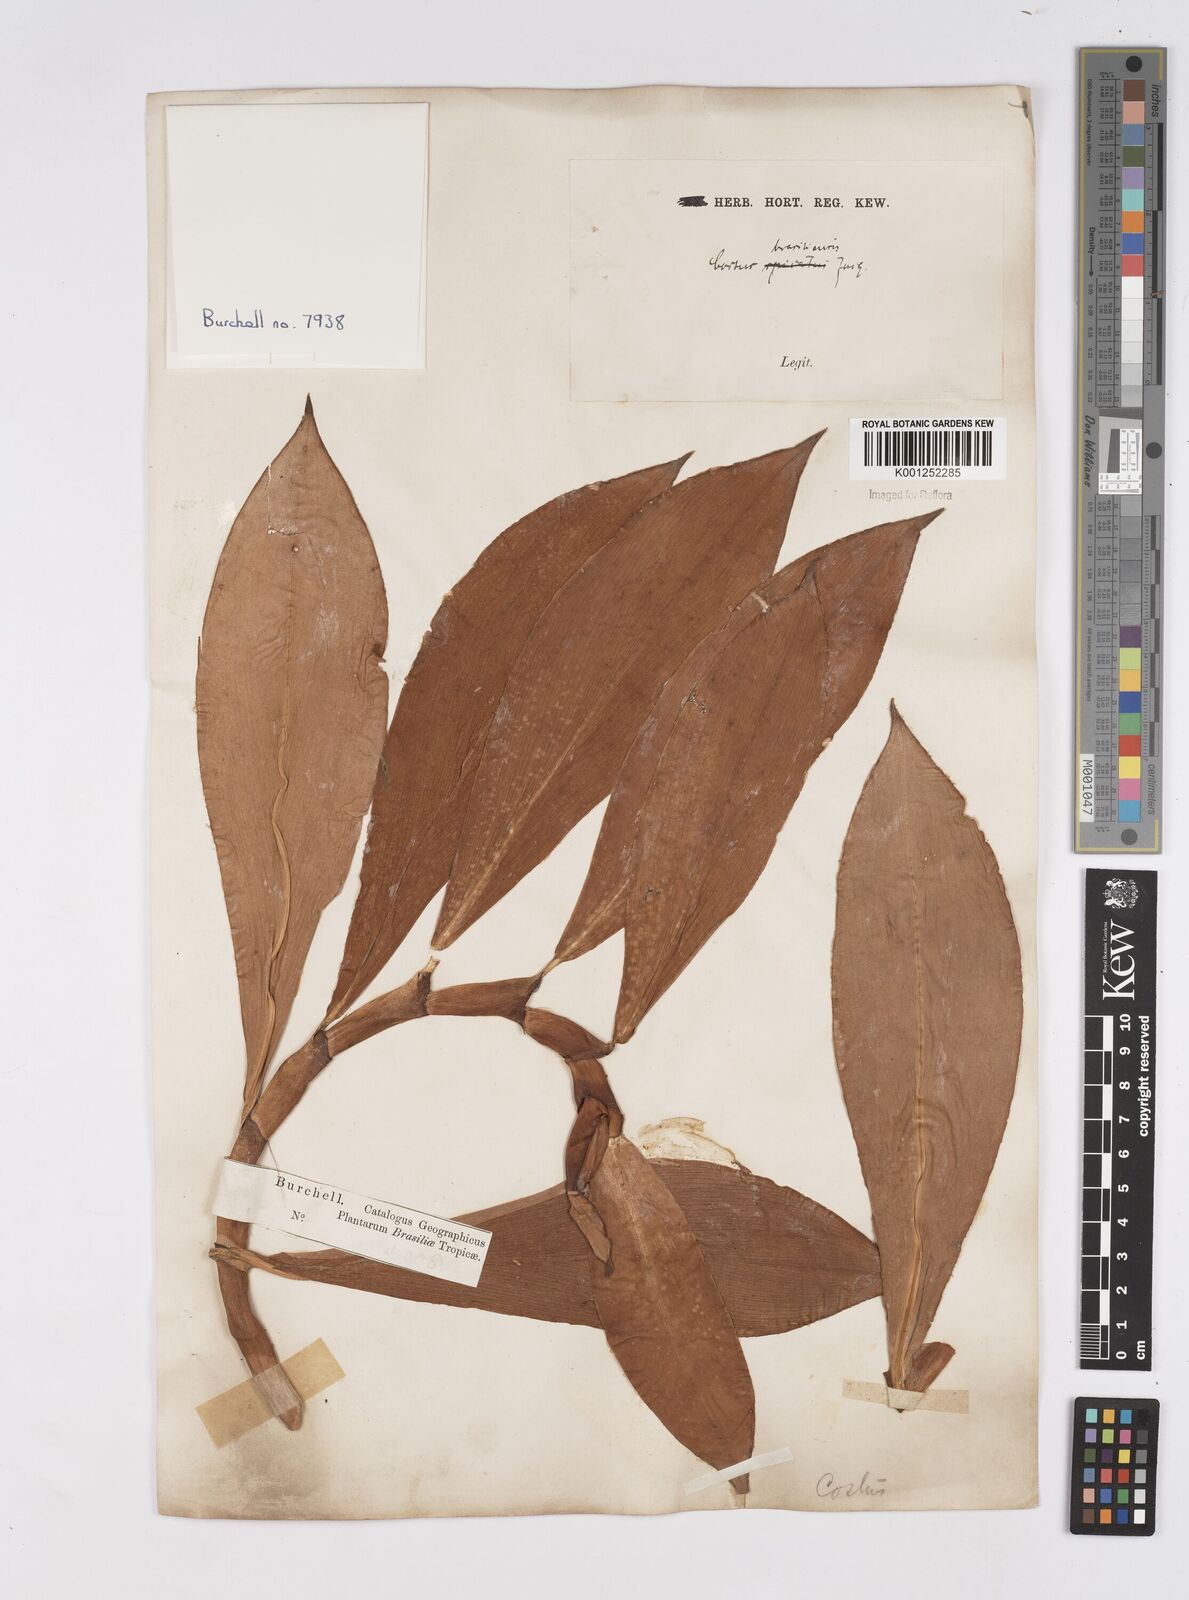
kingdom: Plantae
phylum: Tracheophyta
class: Liliopsida
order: Zingiberales
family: Costaceae
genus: Costus
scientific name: Costus spiralis
